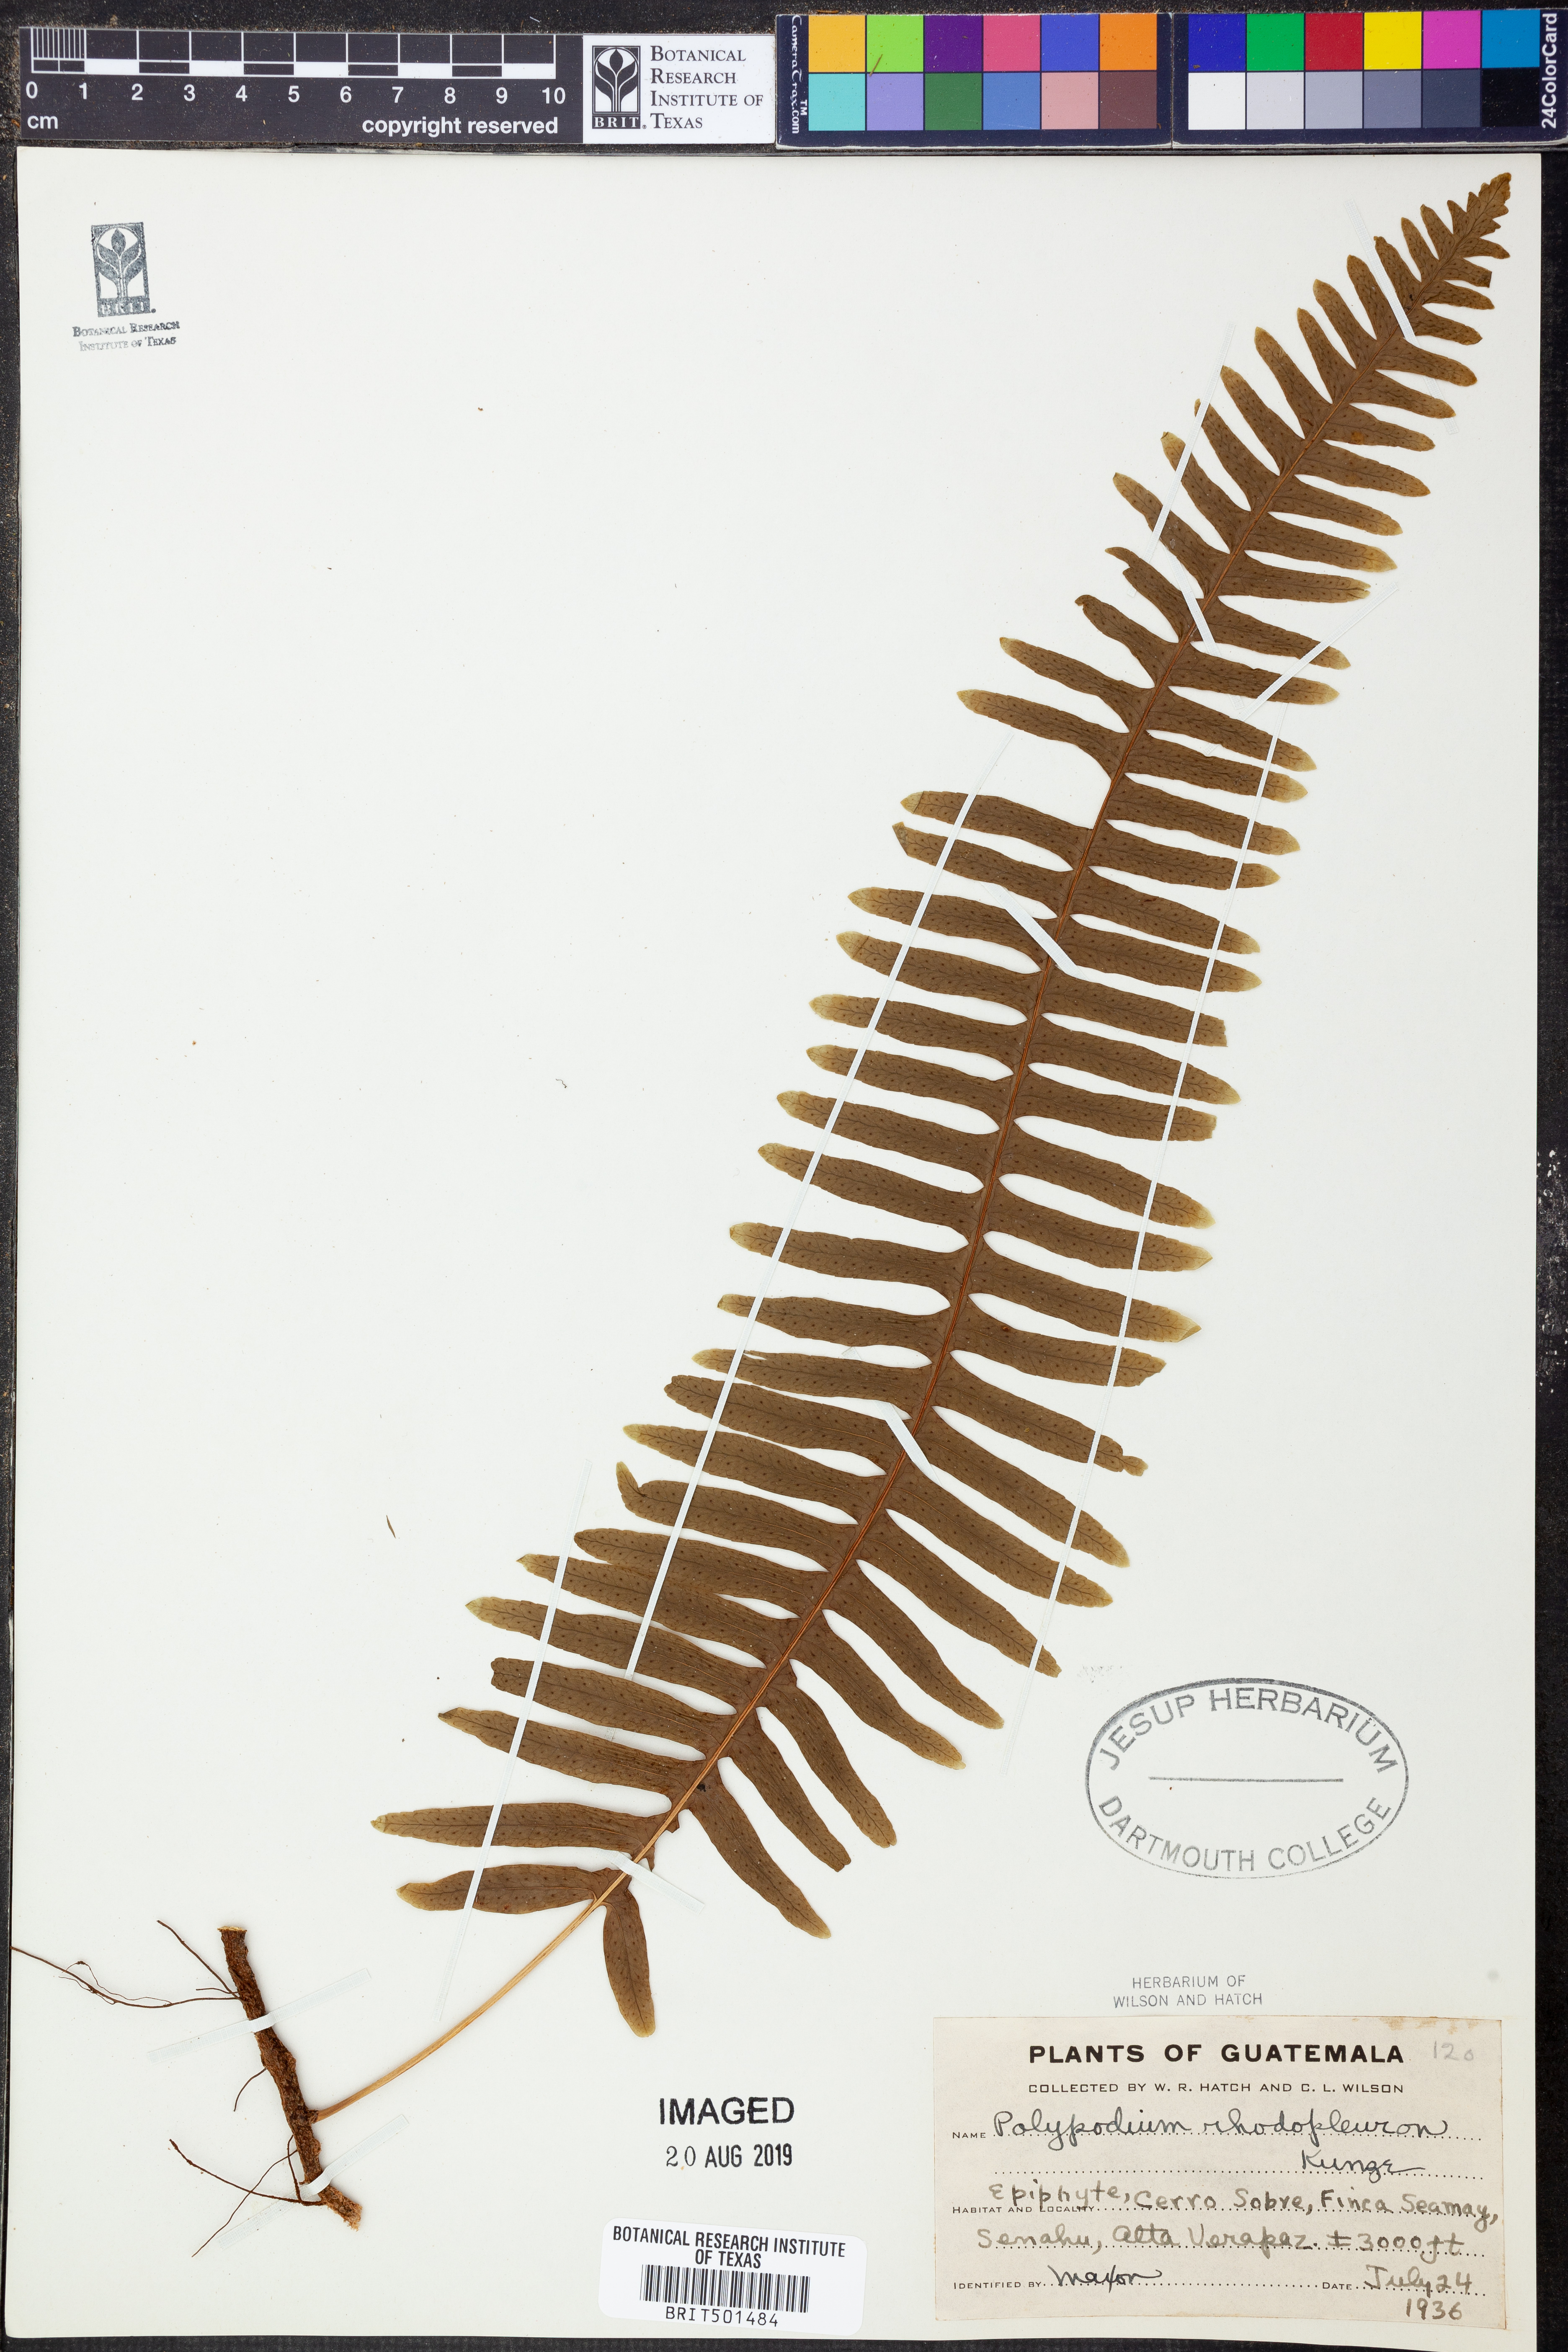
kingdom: Plantae
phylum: Tracheophyta
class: Polypodiopsida
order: Polypodiales
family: Polypodiaceae
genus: Polypodium
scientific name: Polypodium rhodopleuron
